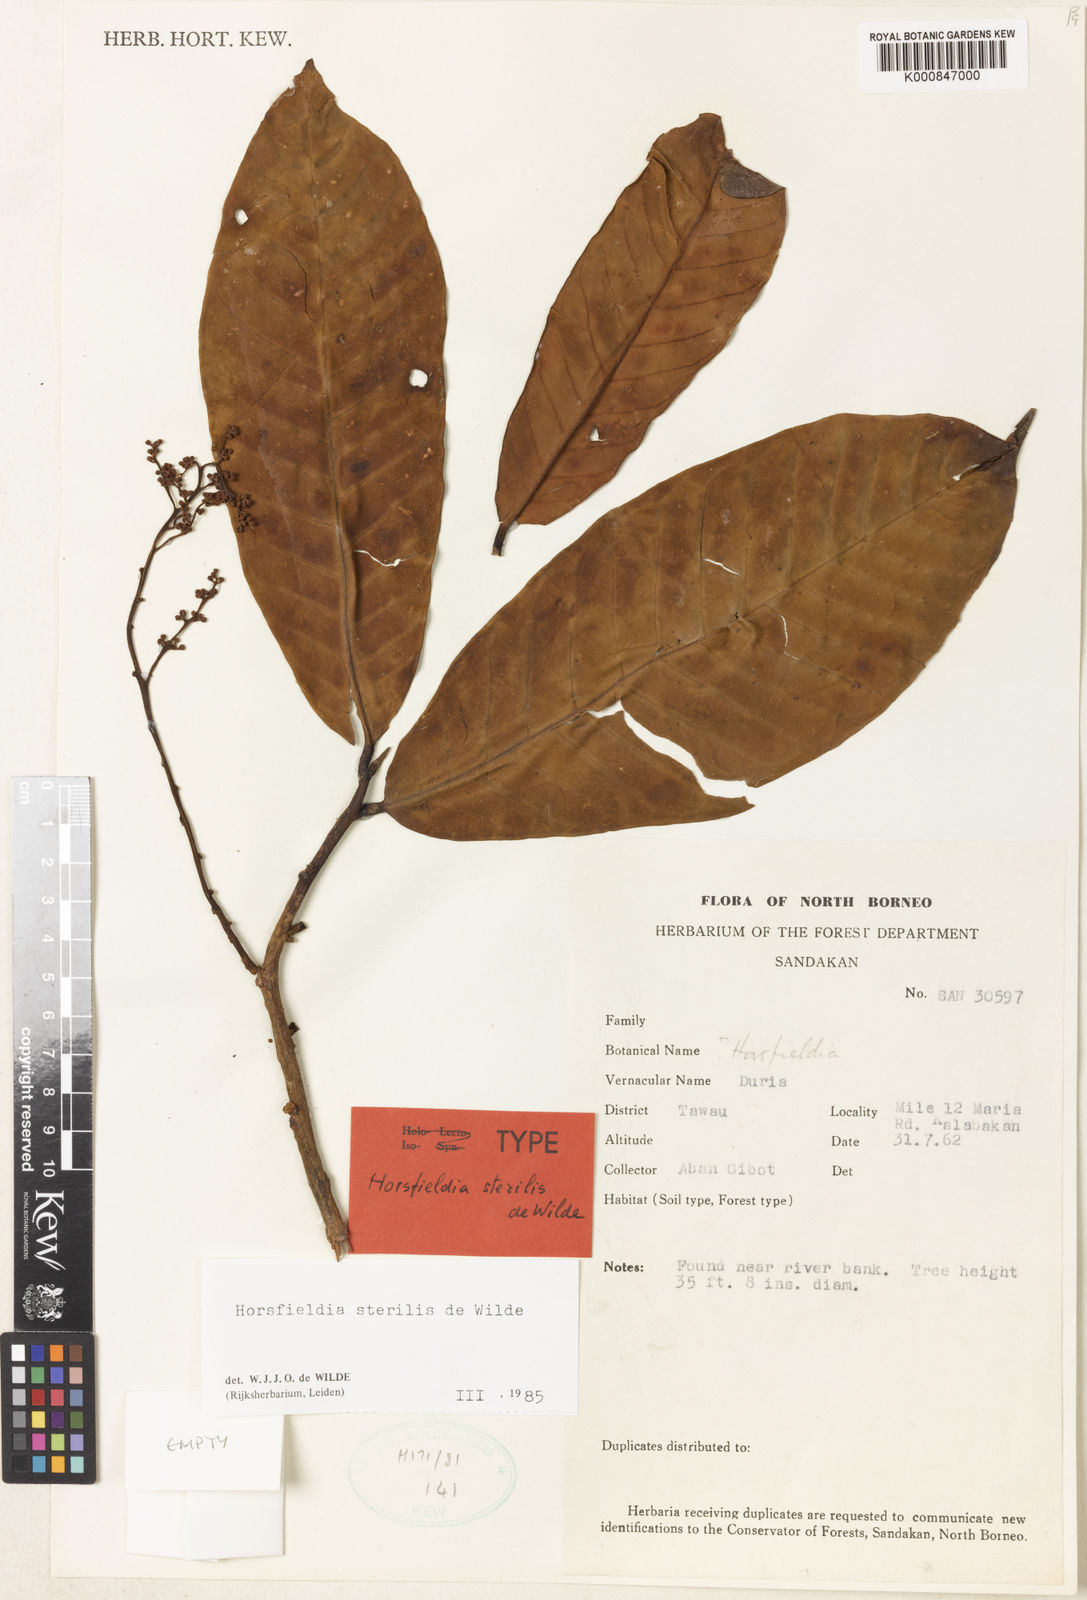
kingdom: Plantae
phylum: Tracheophyta
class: Magnoliopsida
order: Magnoliales
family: Myristicaceae
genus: Horsfieldia
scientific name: Horsfieldia sterilis
